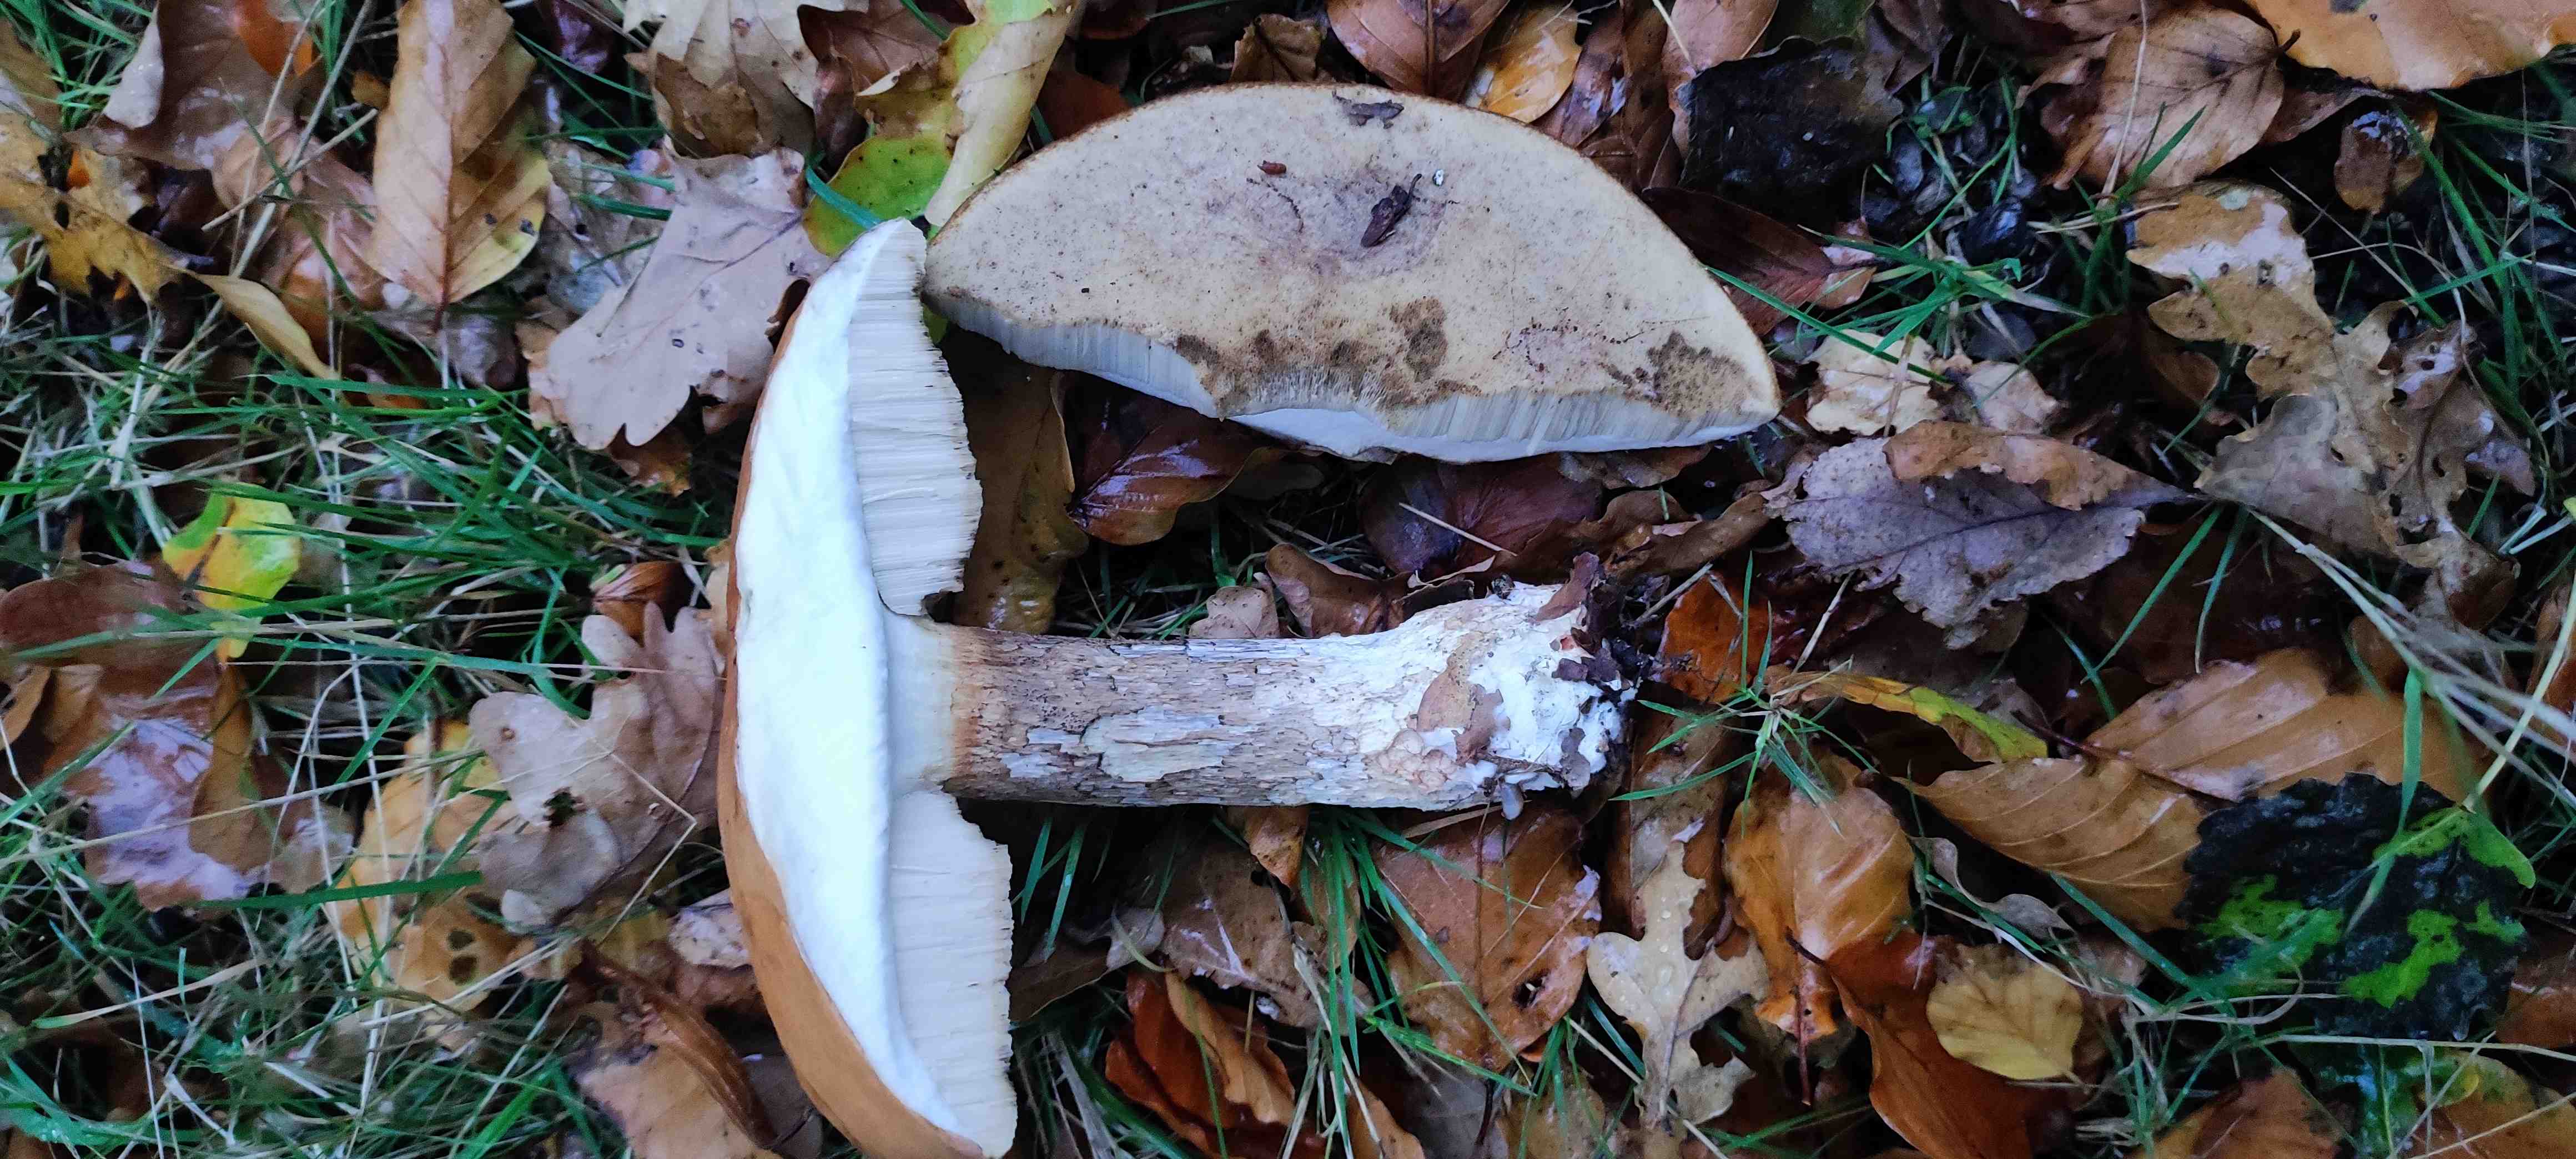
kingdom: Fungi
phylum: Basidiomycota
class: Agaricomycetes
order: Boletales
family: Boletaceae
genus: Leccinum
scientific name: Leccinum
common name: skælrørhat
